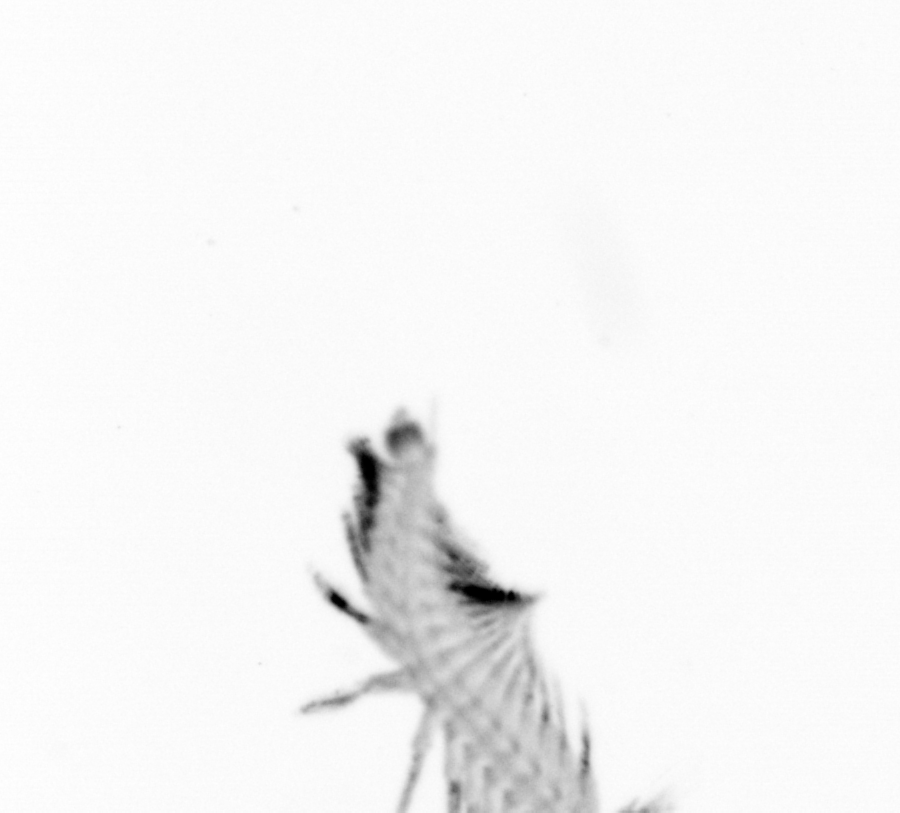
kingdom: Animalia
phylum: Annelida
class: Polychaeta
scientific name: Polychaeta
